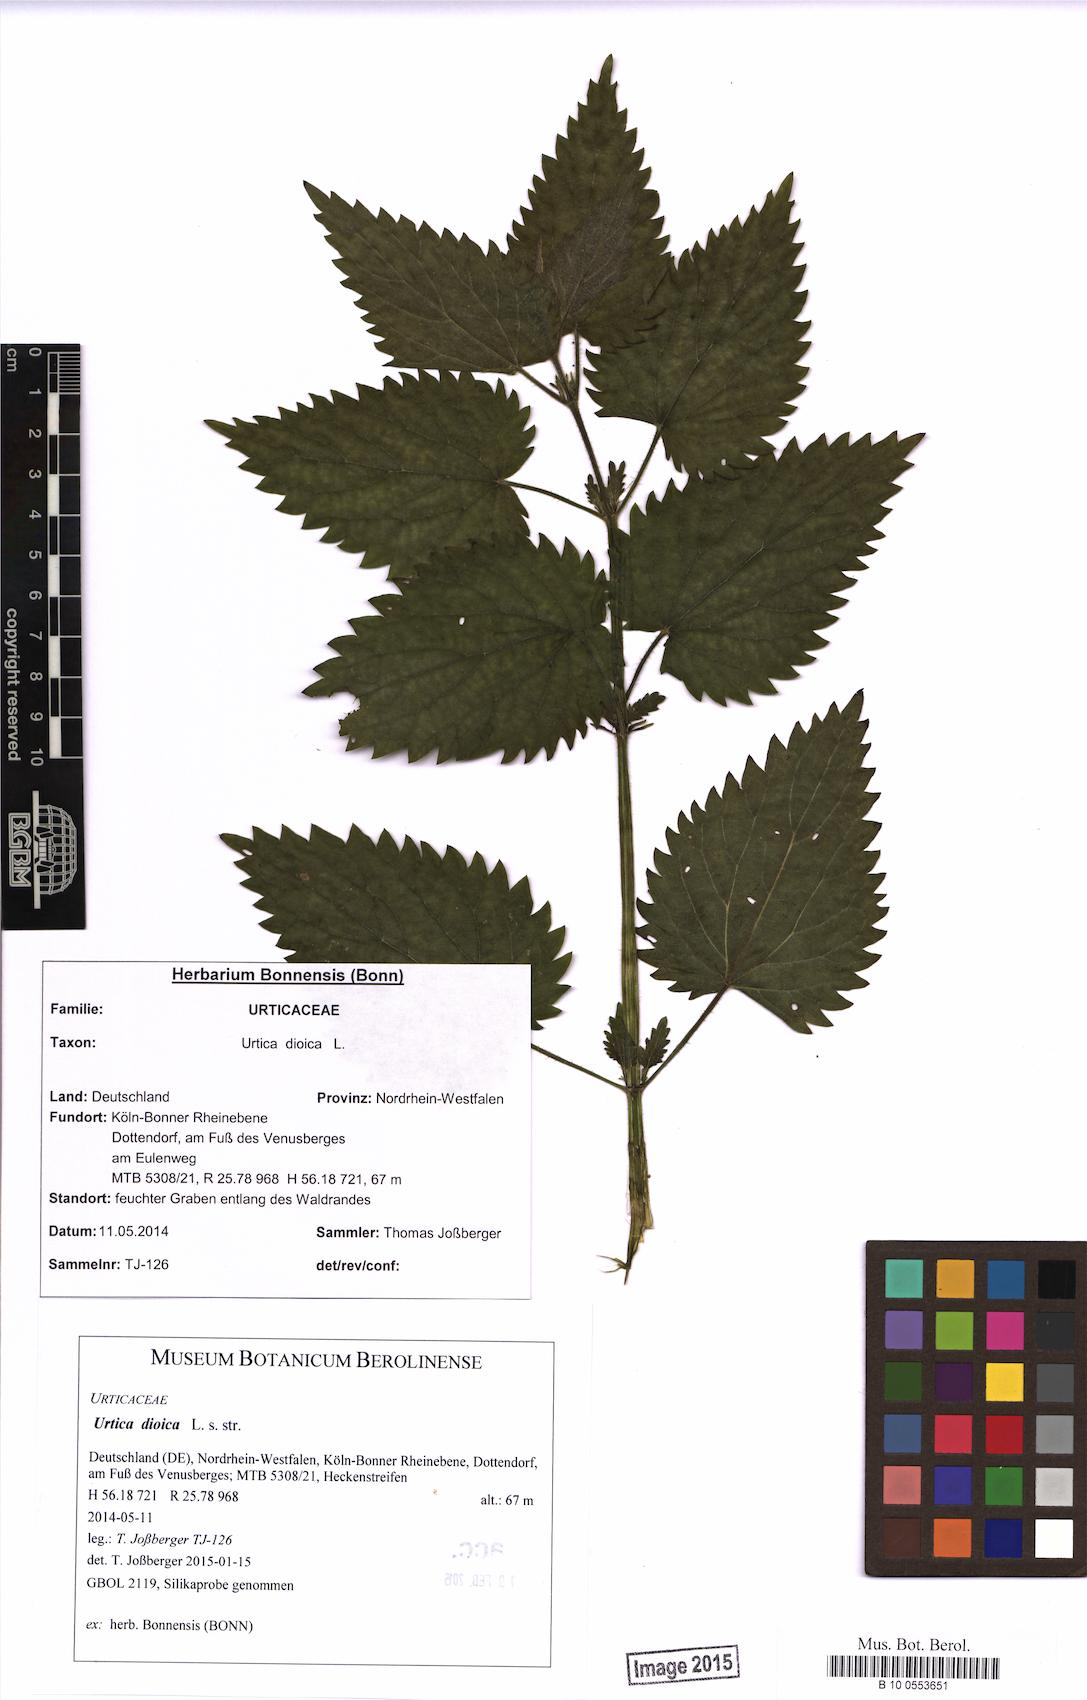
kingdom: Plantae
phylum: Tracheophyta
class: Magnoliopsida
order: Rosales
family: Urticaceae
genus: Urtica
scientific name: Urtica dioica
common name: Common nettle
